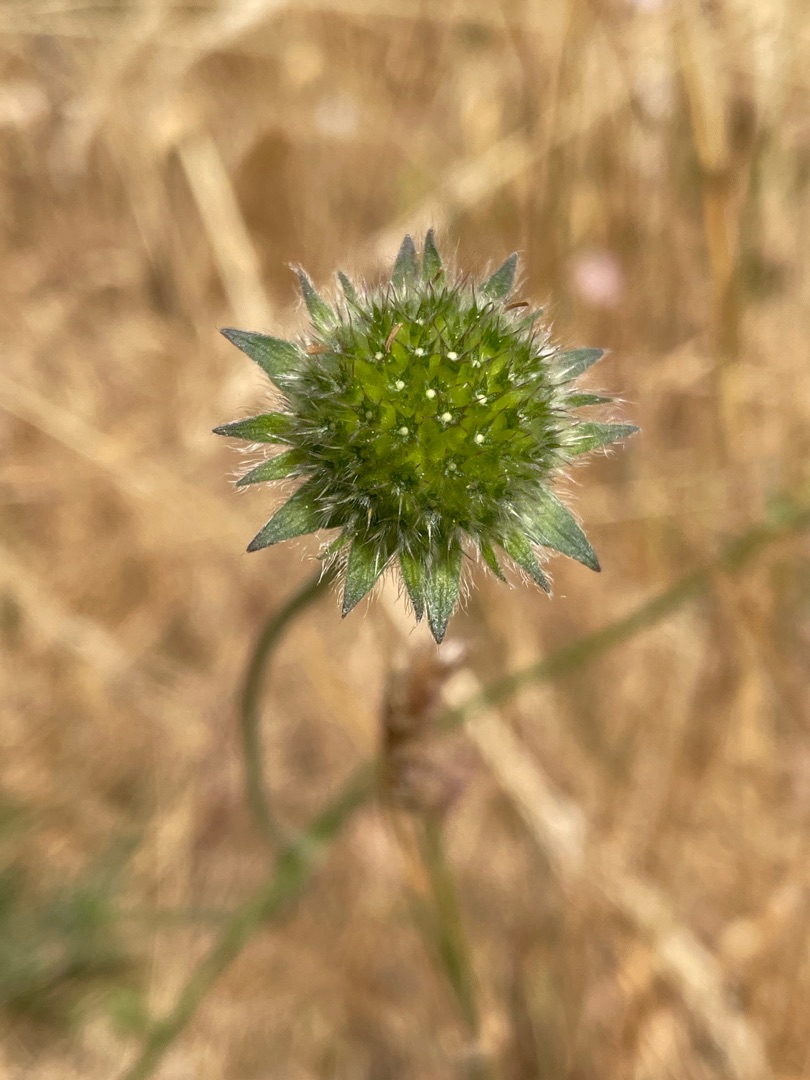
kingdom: Plantae
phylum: Tracheophyta
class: Magnoliopsida
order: Dipsacales
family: Caprifoliaceae
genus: Knautia
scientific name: Knautia arvensis
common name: Blåhat
